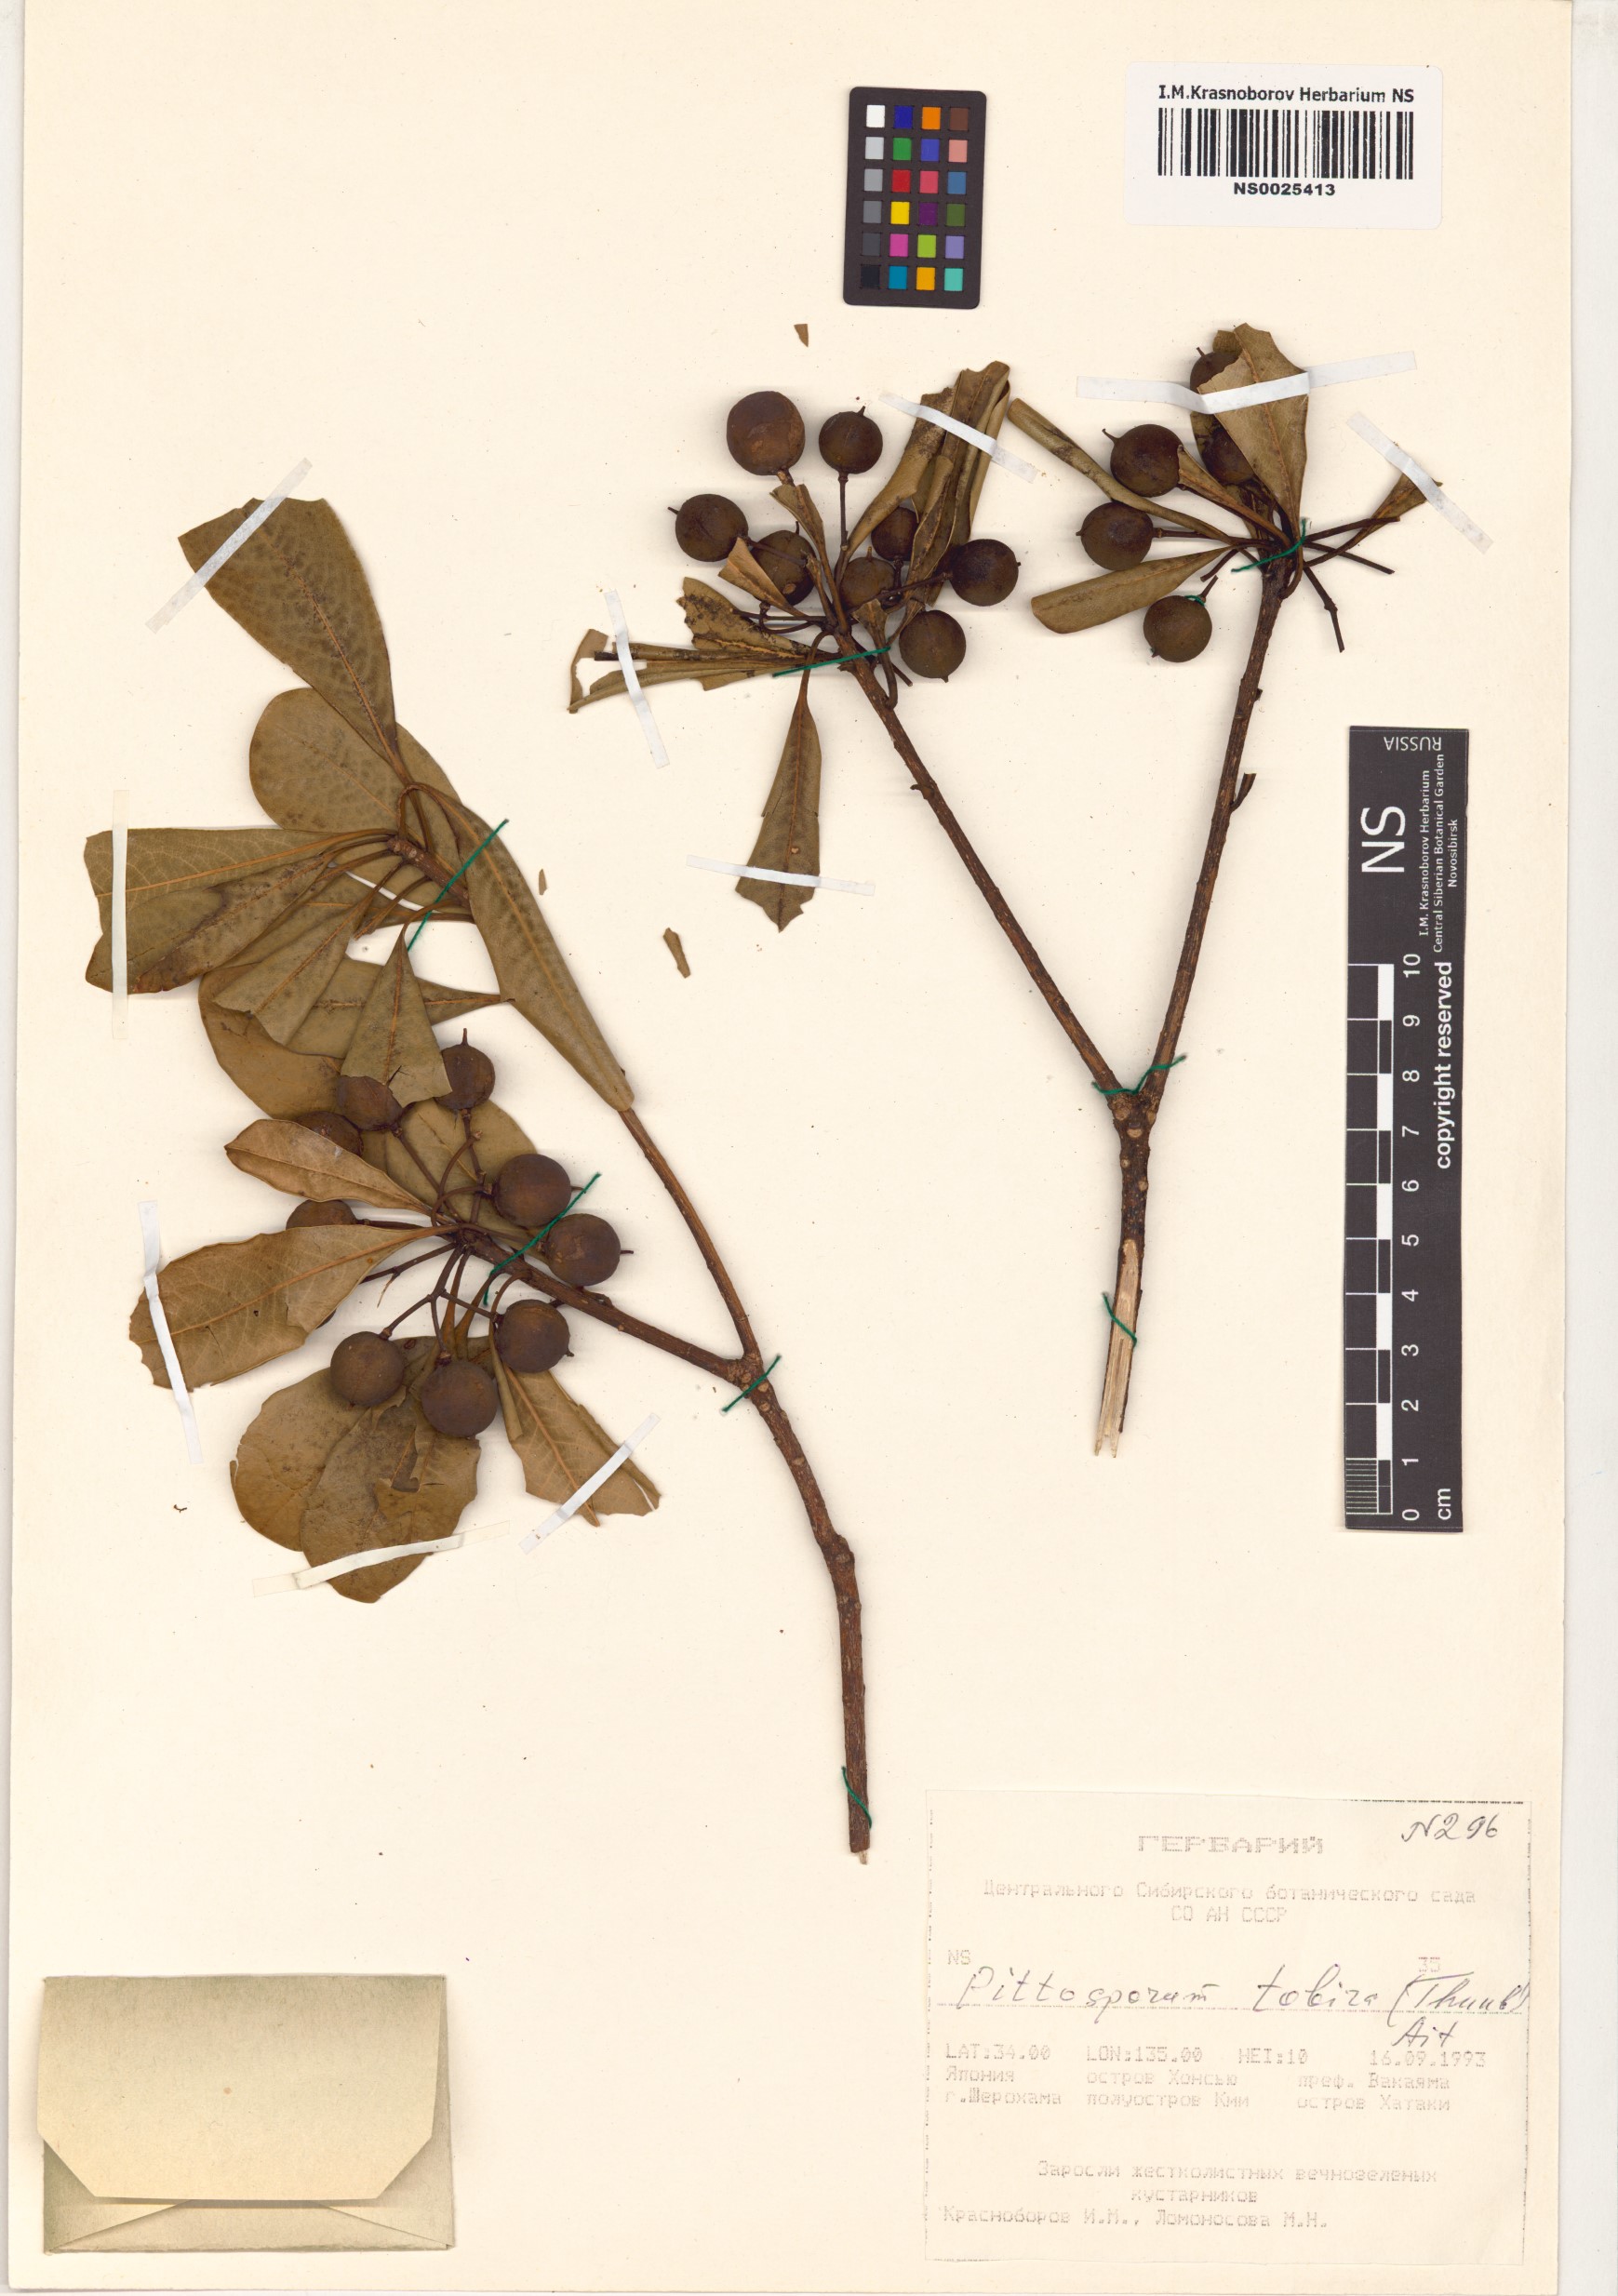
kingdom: Plantae
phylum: Tracheophyta
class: Magnoliopsida
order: Apiales
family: Pittosporaceae
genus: Pittosporum
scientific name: Pittosporum tobira
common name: Japanese cheesewood
